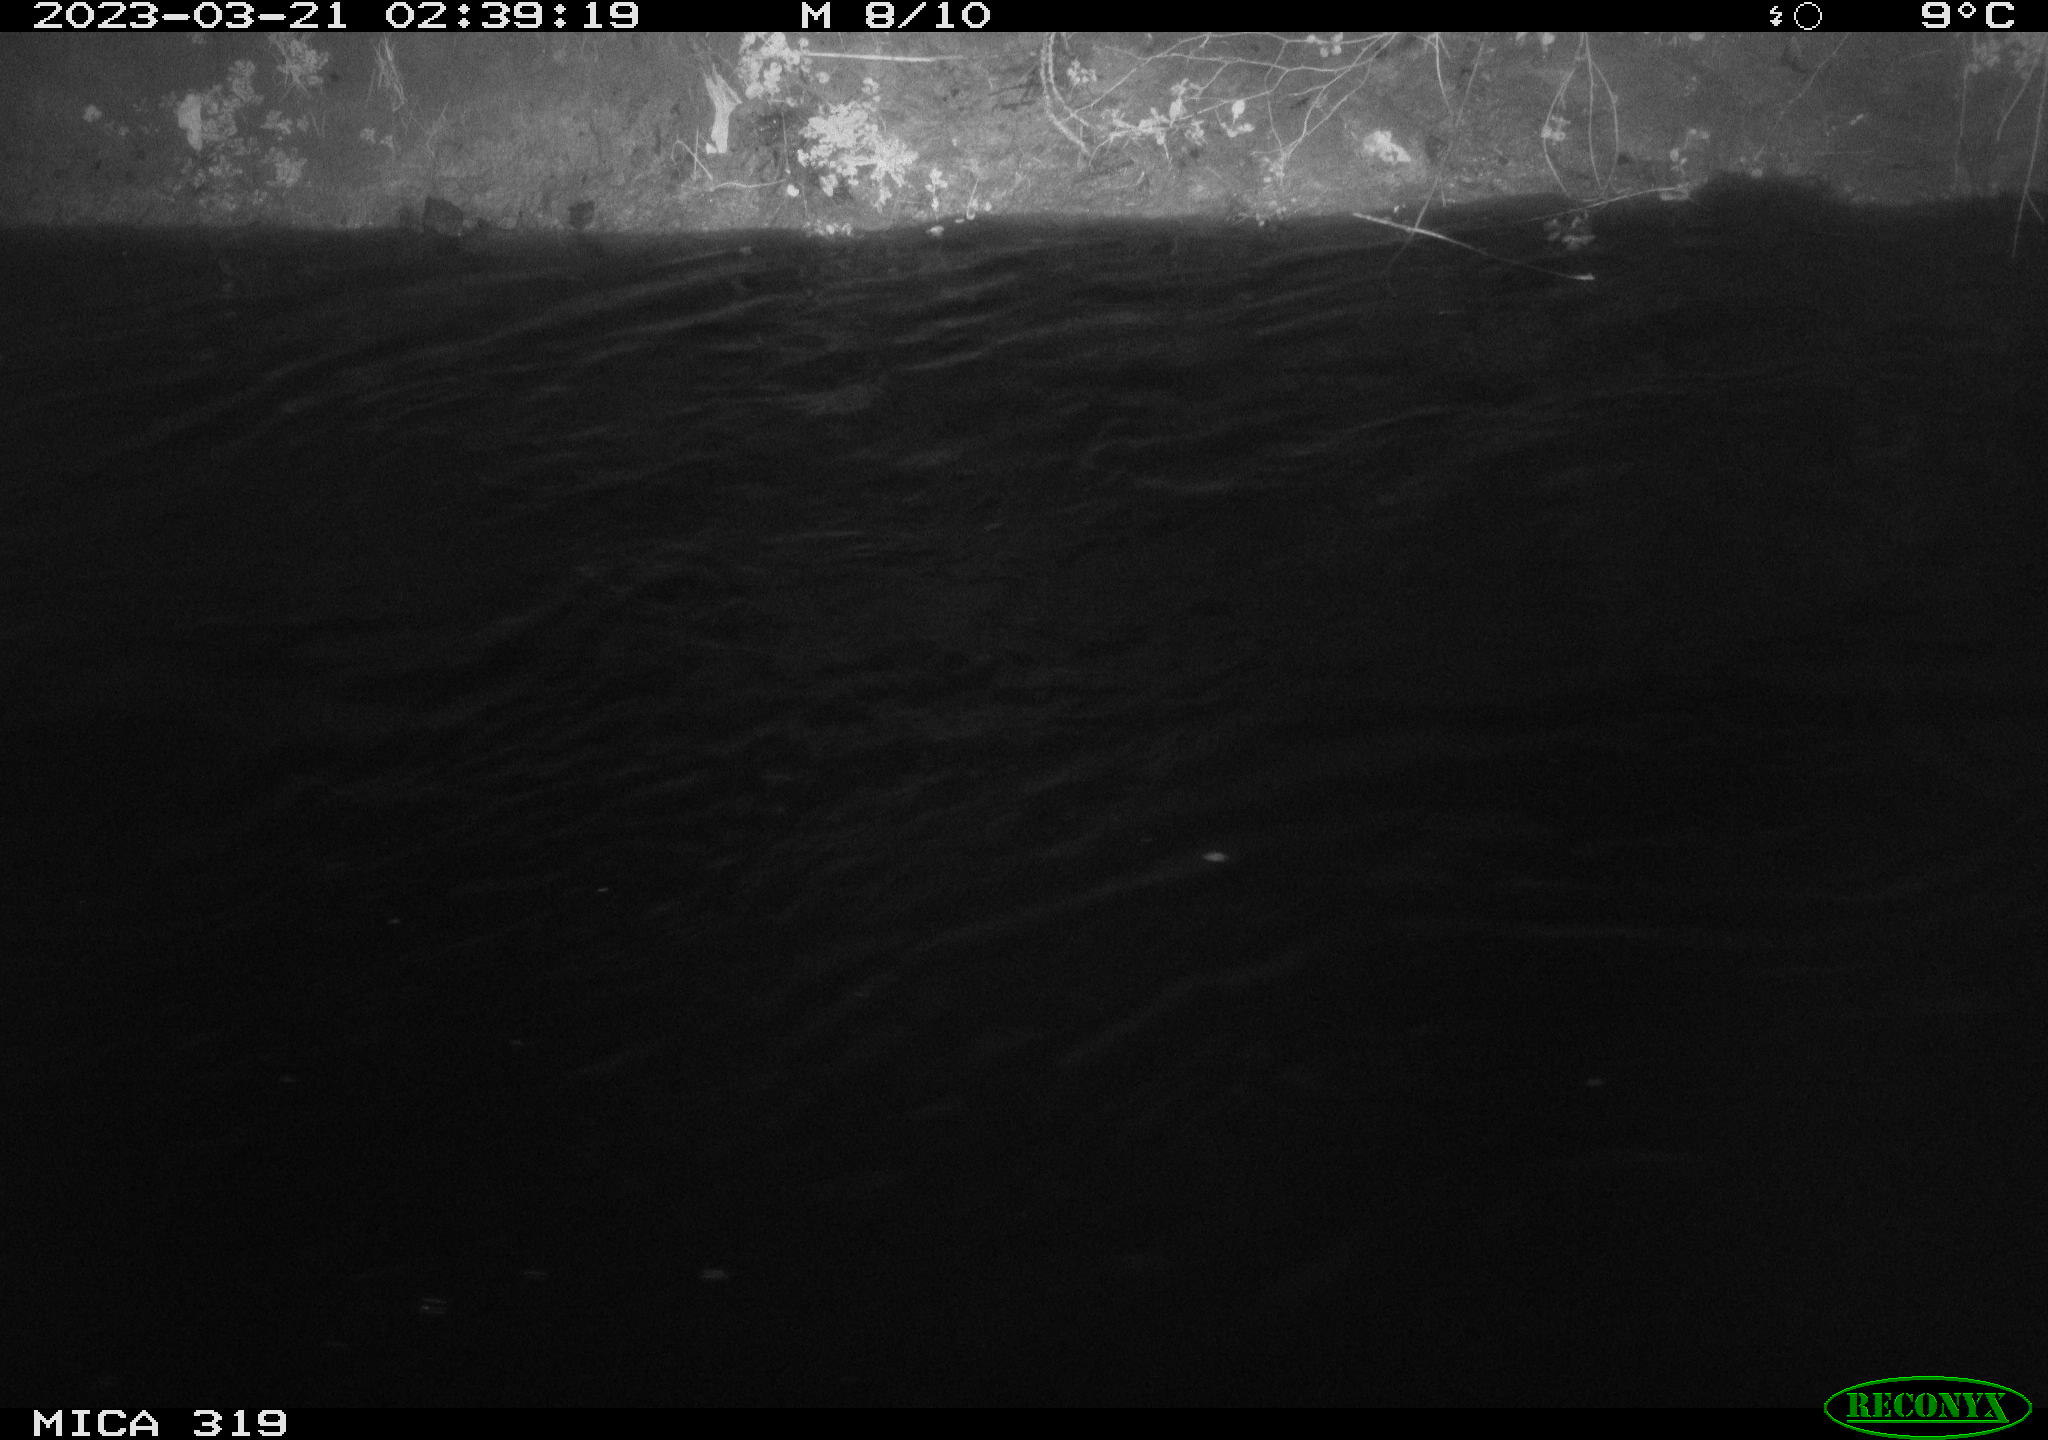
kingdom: Animalia
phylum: Chordata
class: Aves
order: Anseriformes
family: Anatidae
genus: Anas
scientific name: Anas
